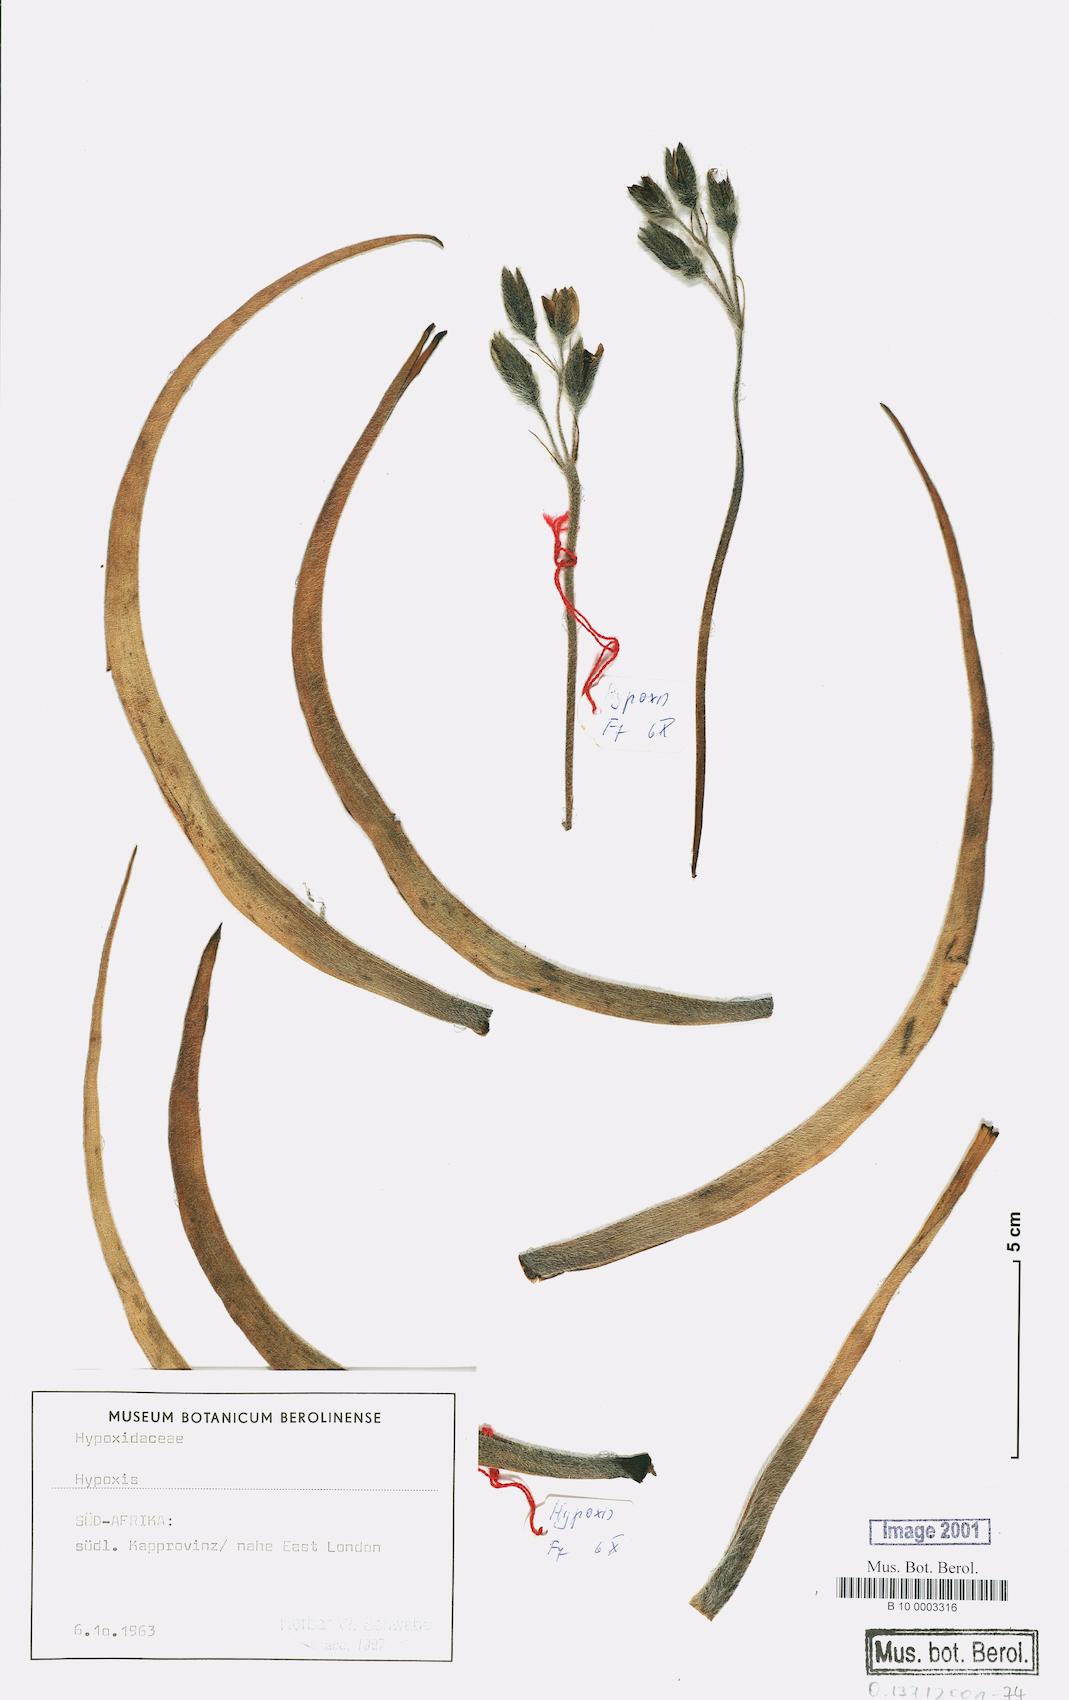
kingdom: Plantae
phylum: Tracheophyta
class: Liliopsida
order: Asparagales
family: Hypoxidaceae
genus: Hypoxis
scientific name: Hypoxis
